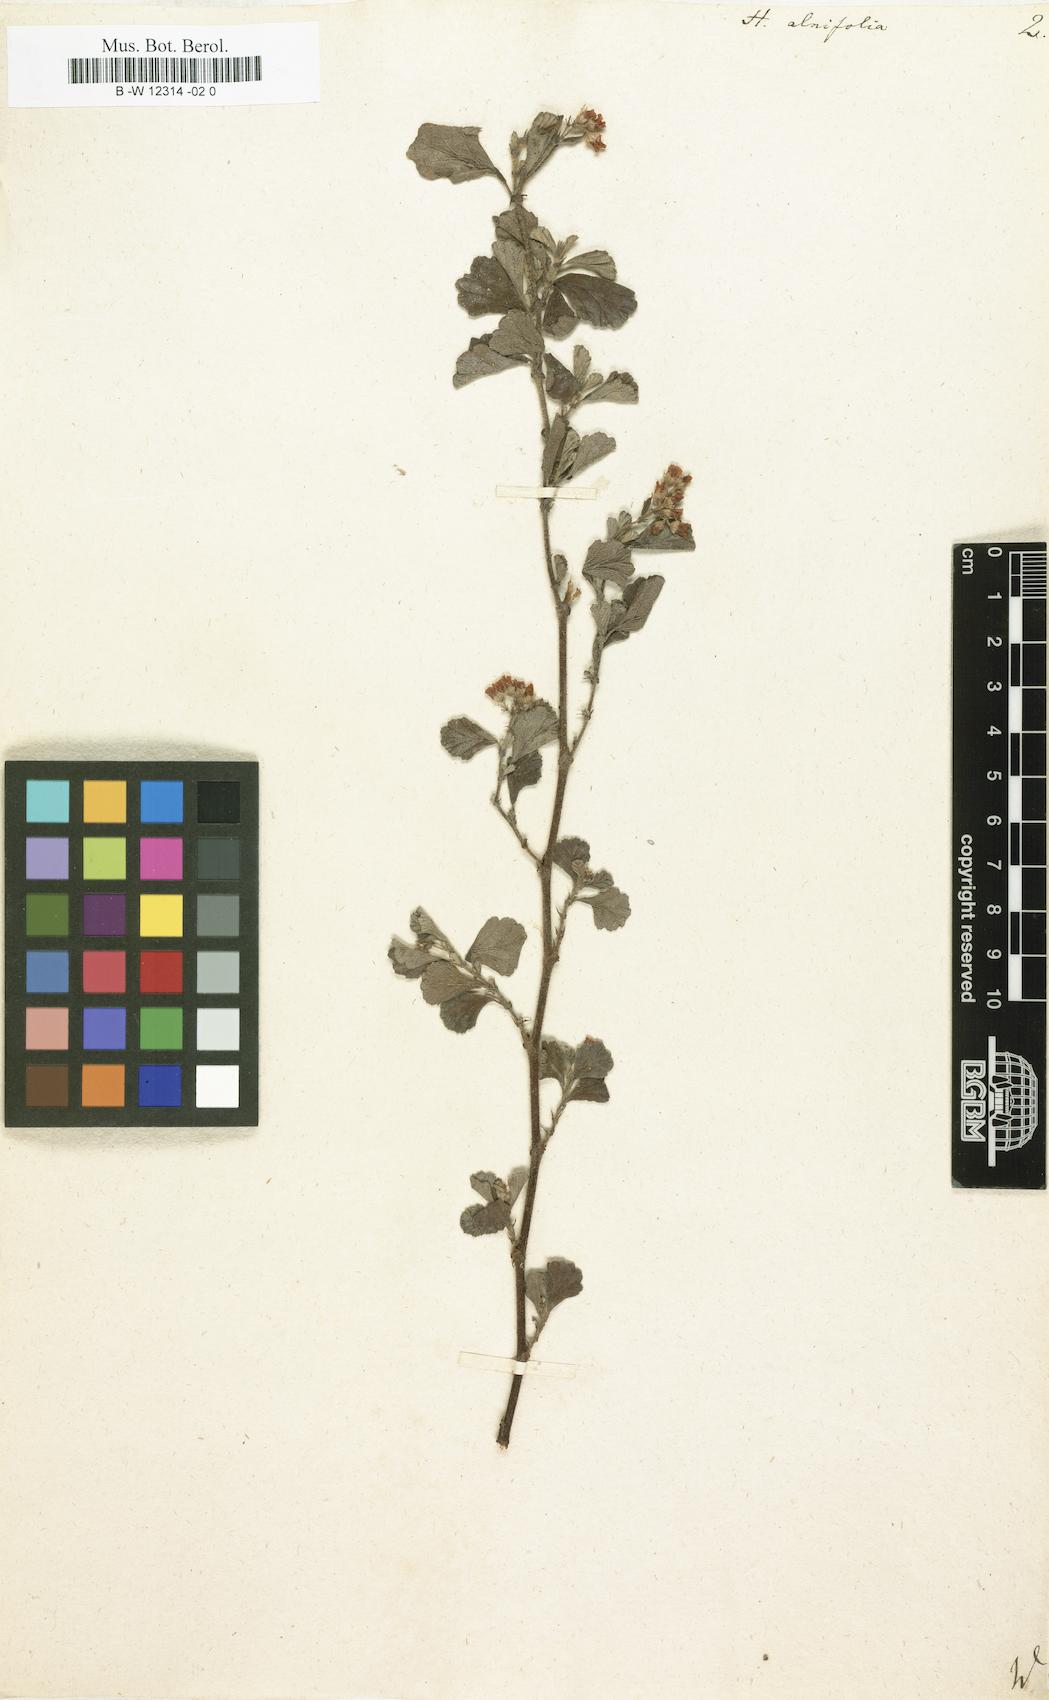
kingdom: Plantae
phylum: Tracheophyta
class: Magnoliopsida
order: Malvales
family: Malvaceae
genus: Hermannia
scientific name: Hermannia alnifolia
